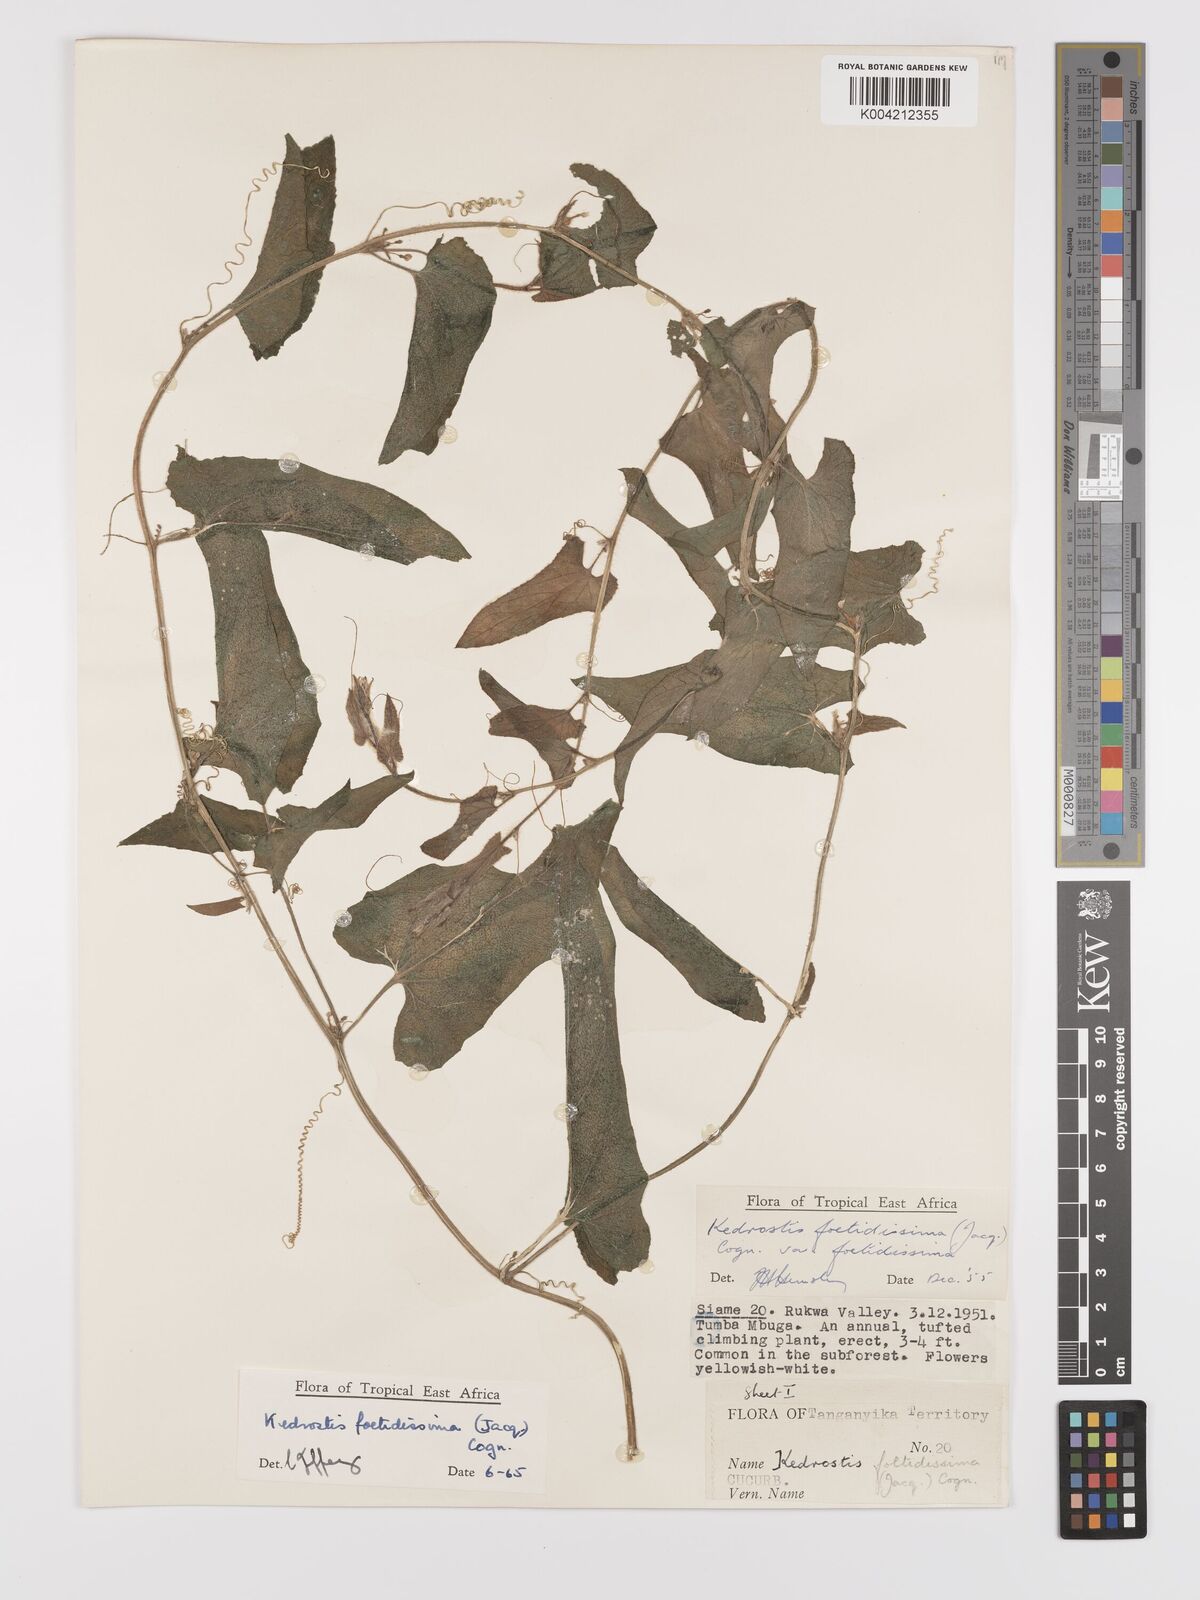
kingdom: Plantae
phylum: Tracheophyta
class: Magnoliopsida
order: Cucurbitales
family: Cucurbitaceae
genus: Kedrostis
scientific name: Kedrostis foetidissima
